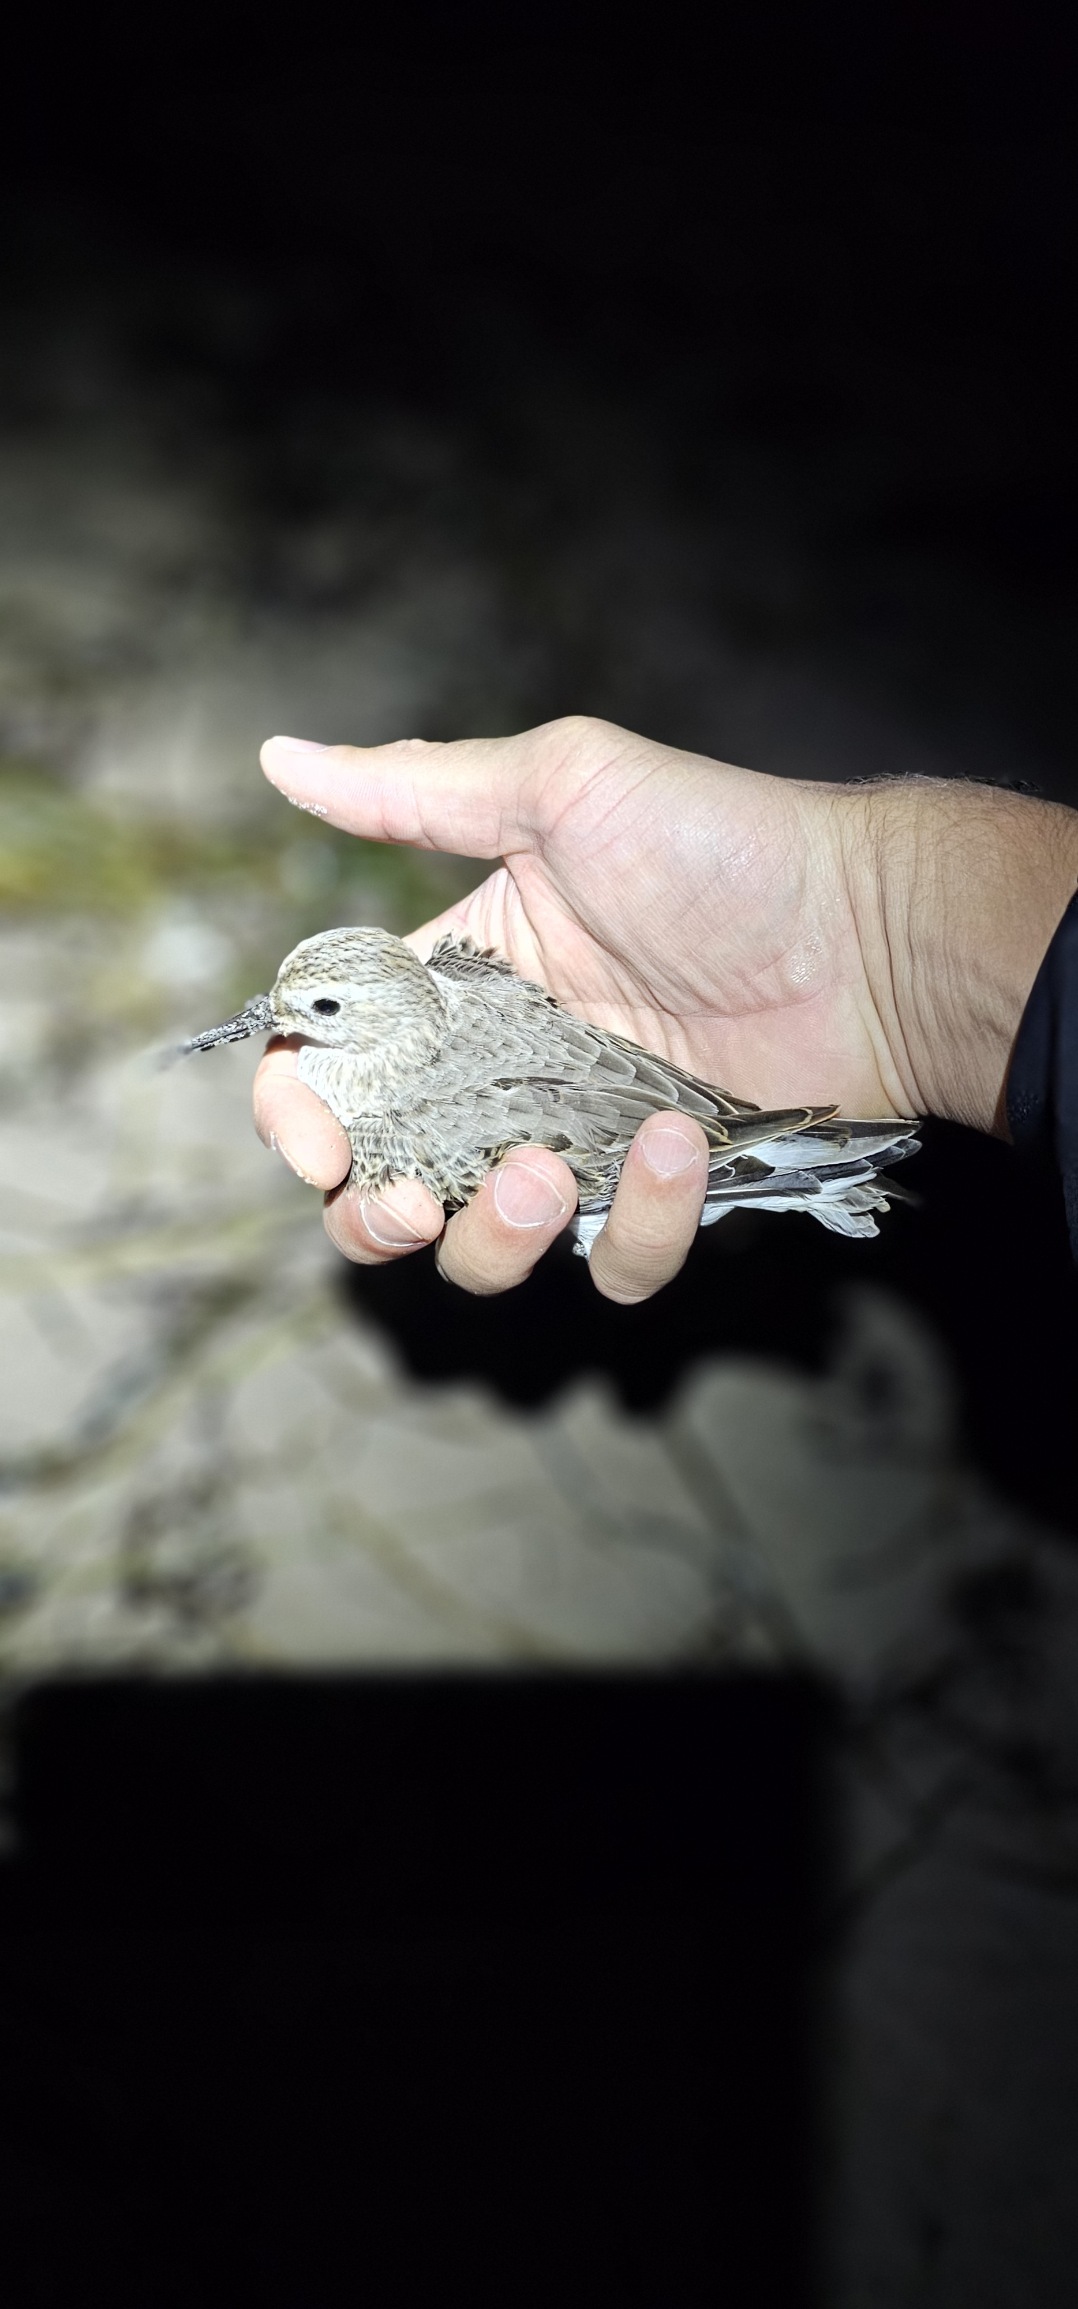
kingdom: Animalia
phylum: Chordata
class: Aves
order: Charadriiformes
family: Scolopacidae
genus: Calidris
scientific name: Calidris alpina
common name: Almindelig ryle
